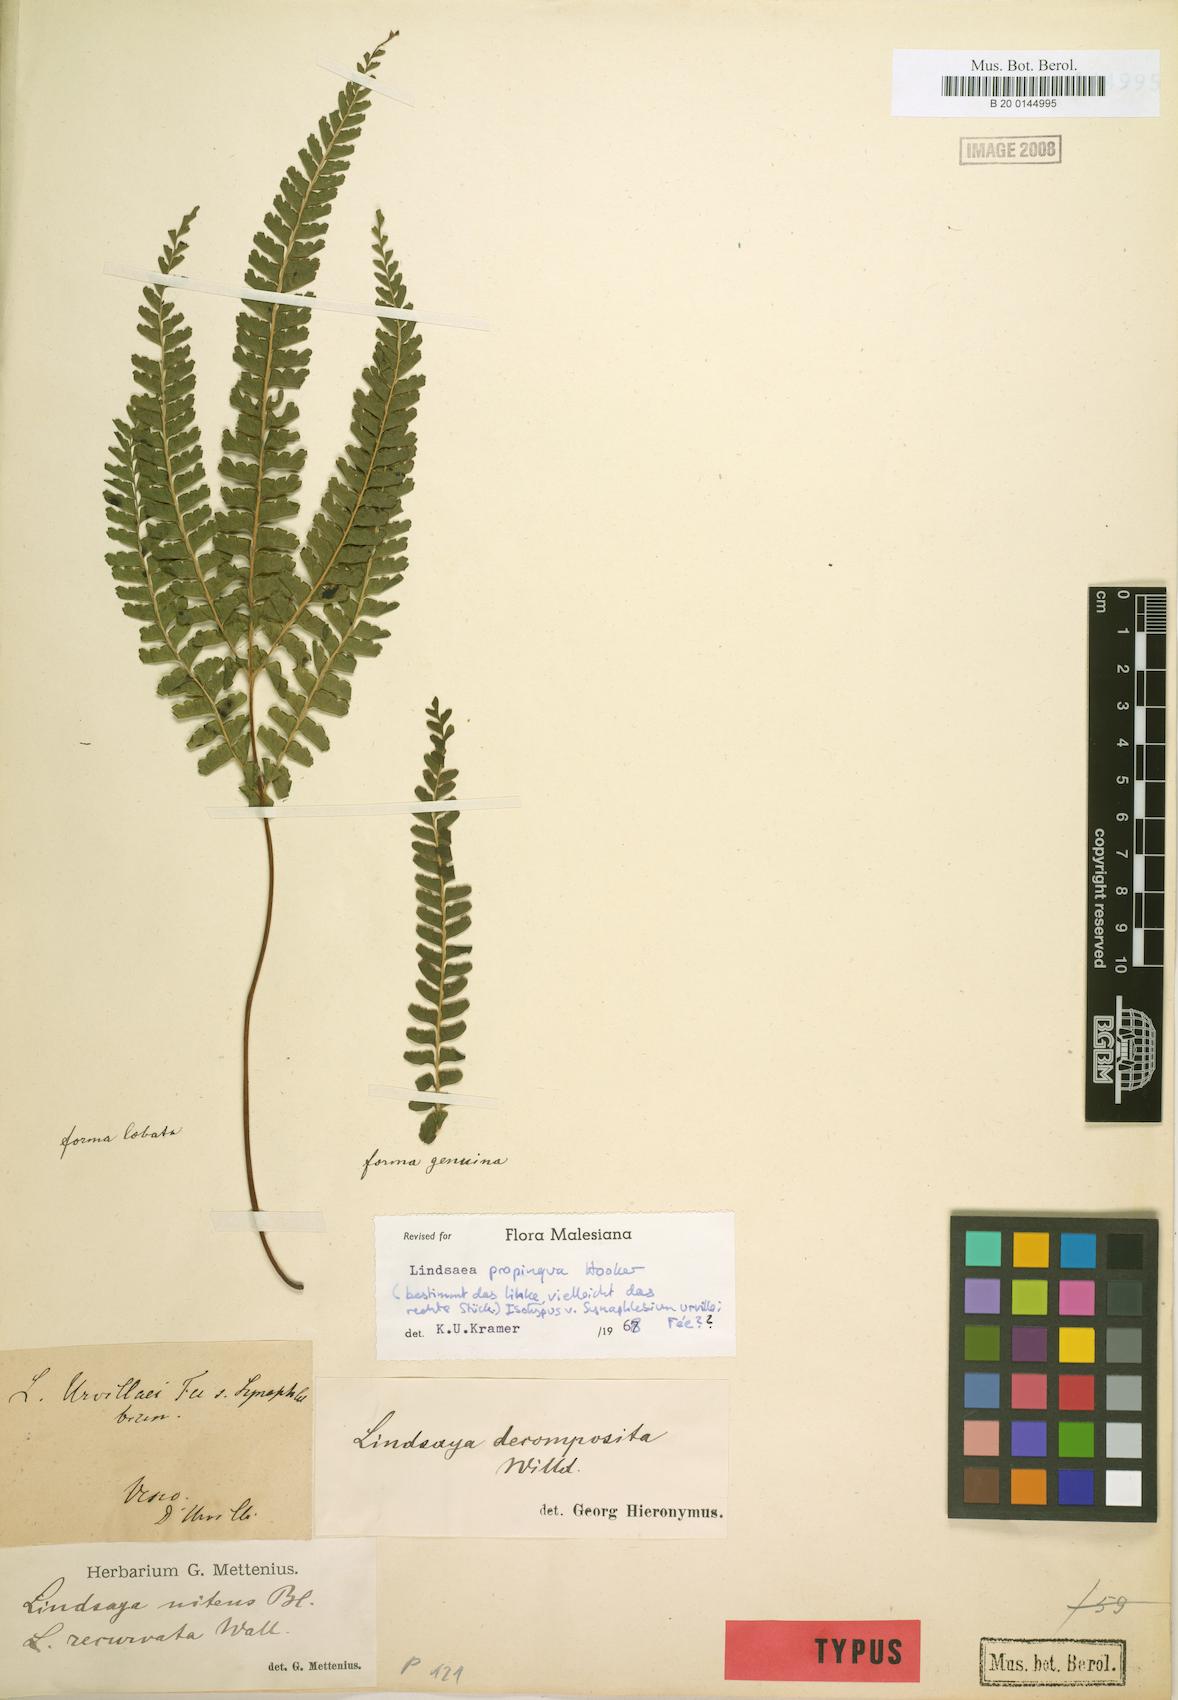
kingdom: Plantae
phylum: Tracheophyta
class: Polypodiopsida
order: Polypodiales
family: Lindsaeaceae
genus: Lindsaea
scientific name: Lindsaea cultrata
